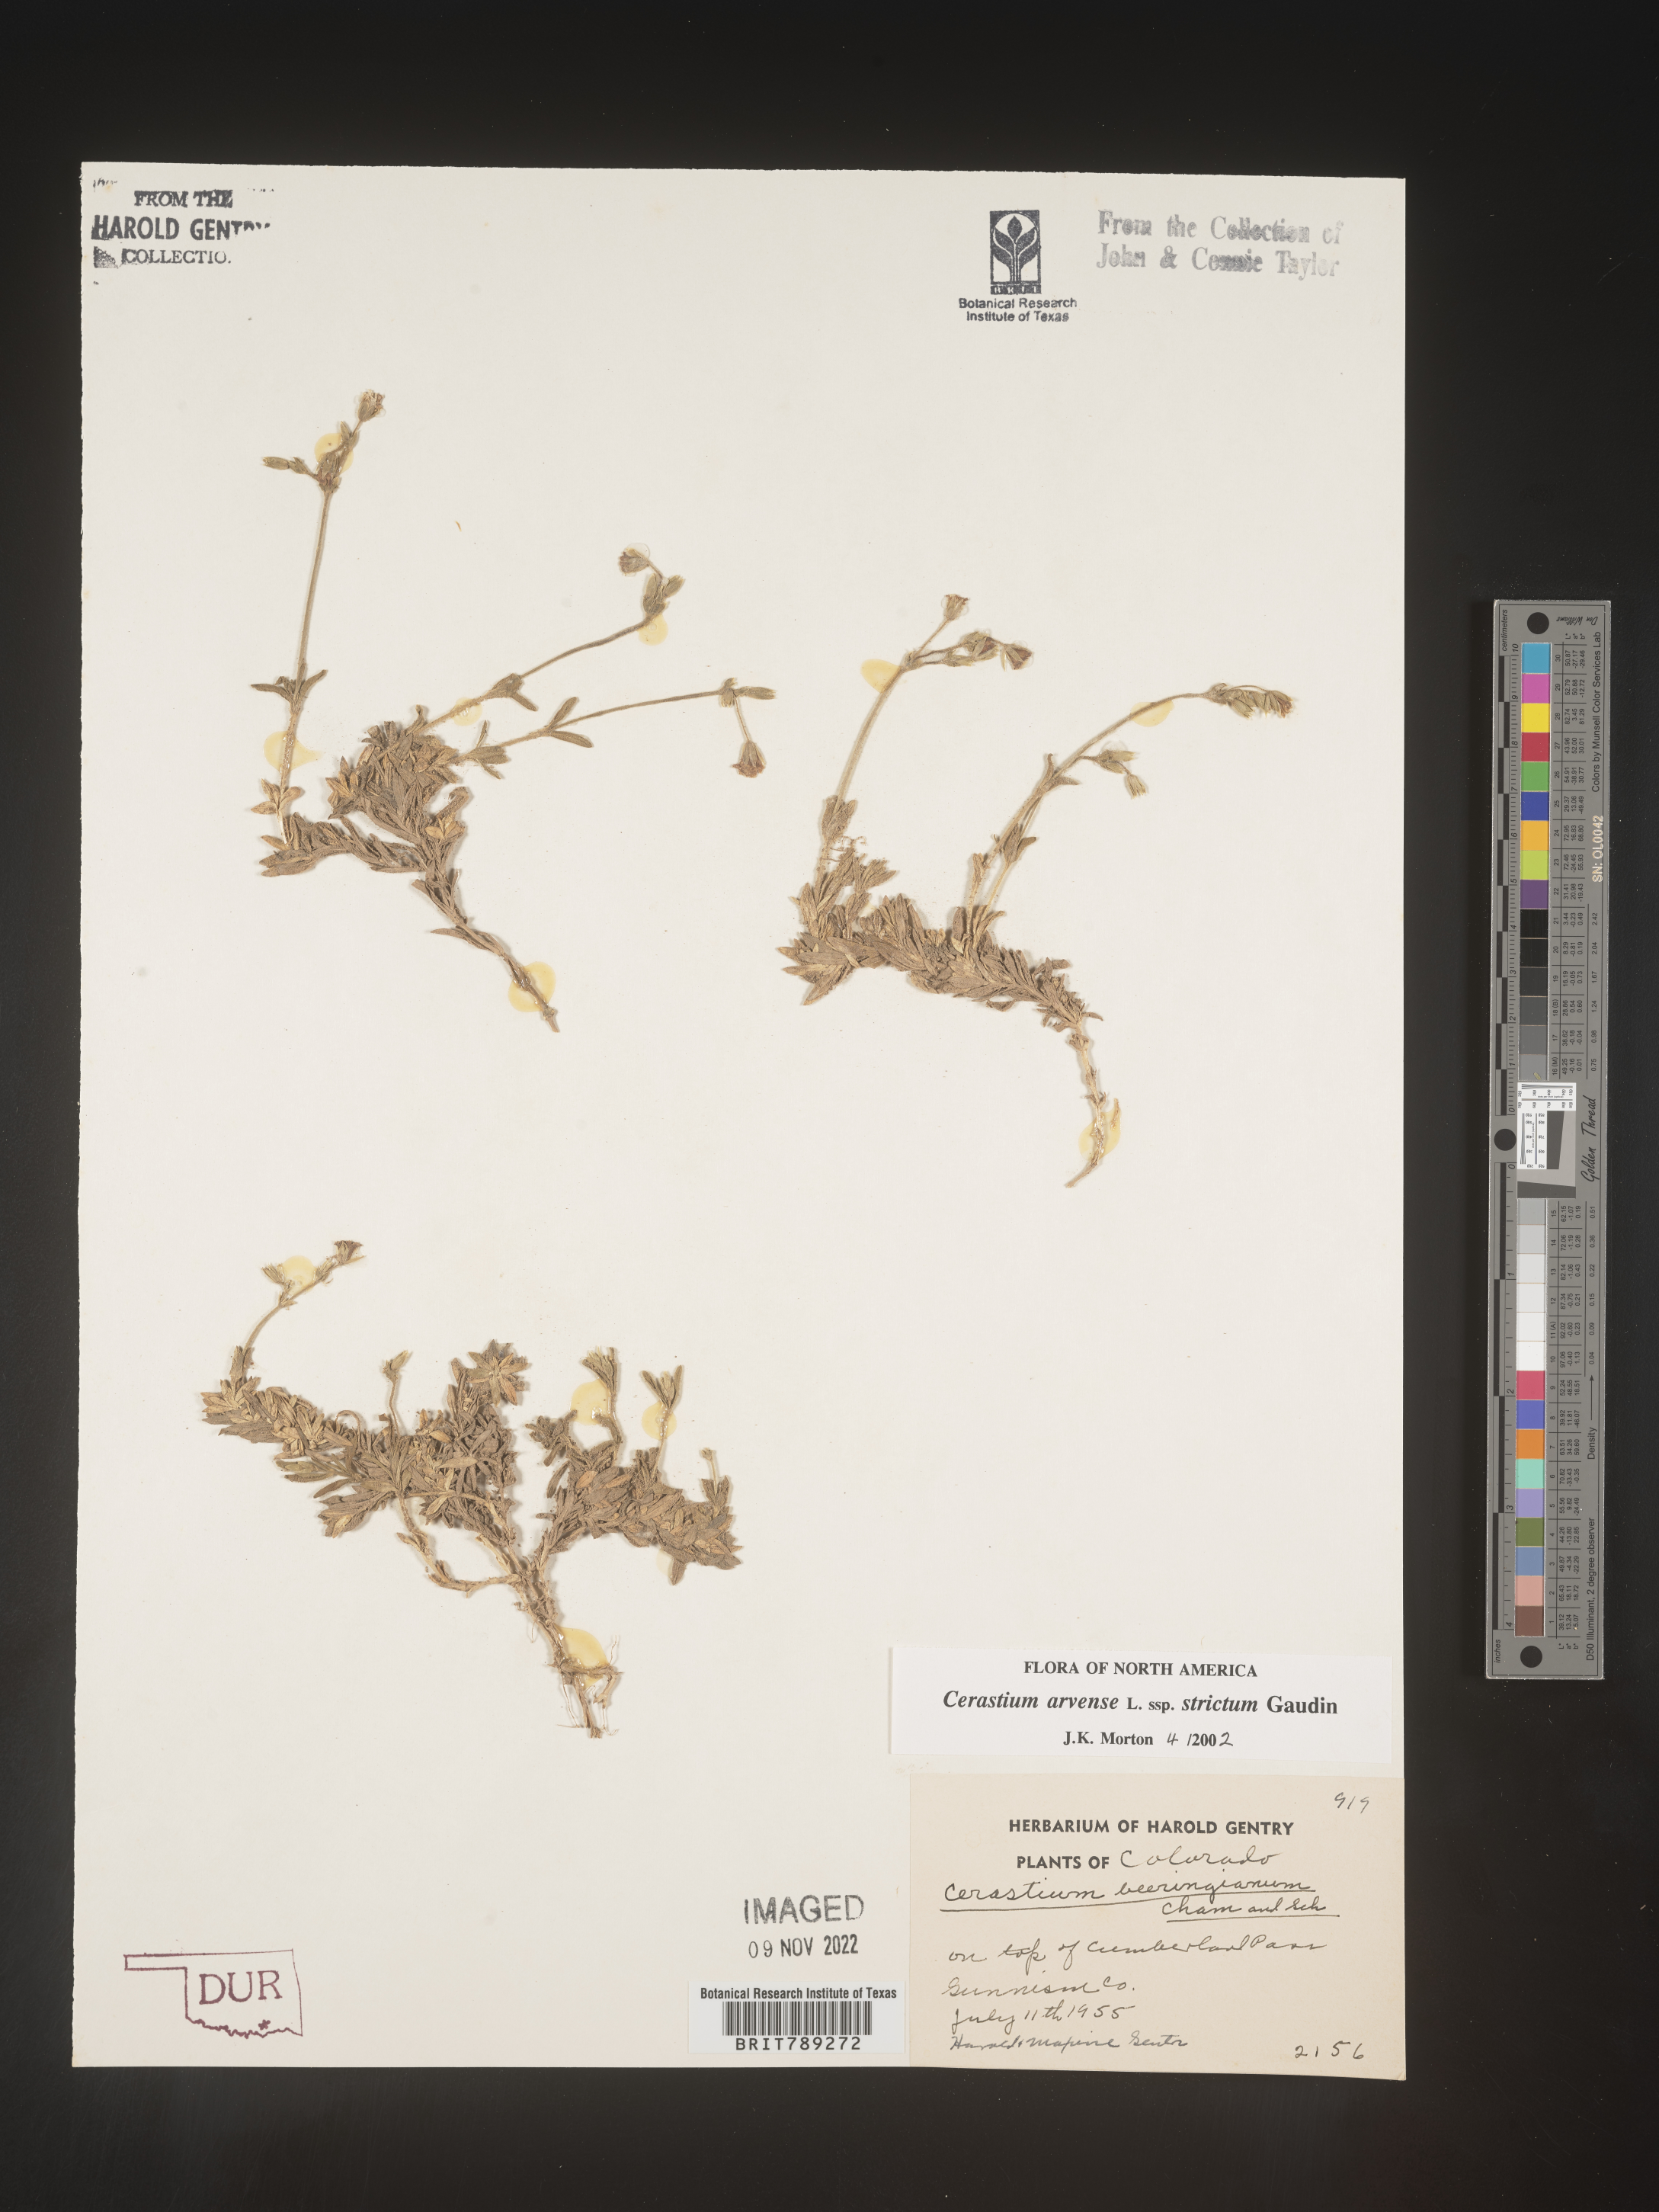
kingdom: Plantae
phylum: Tracheophyta
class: Magnoliopsida
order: Caryophyllales
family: Caryophyllaceae
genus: Cerastium
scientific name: Cerastium arvense
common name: Field mouse-ear
